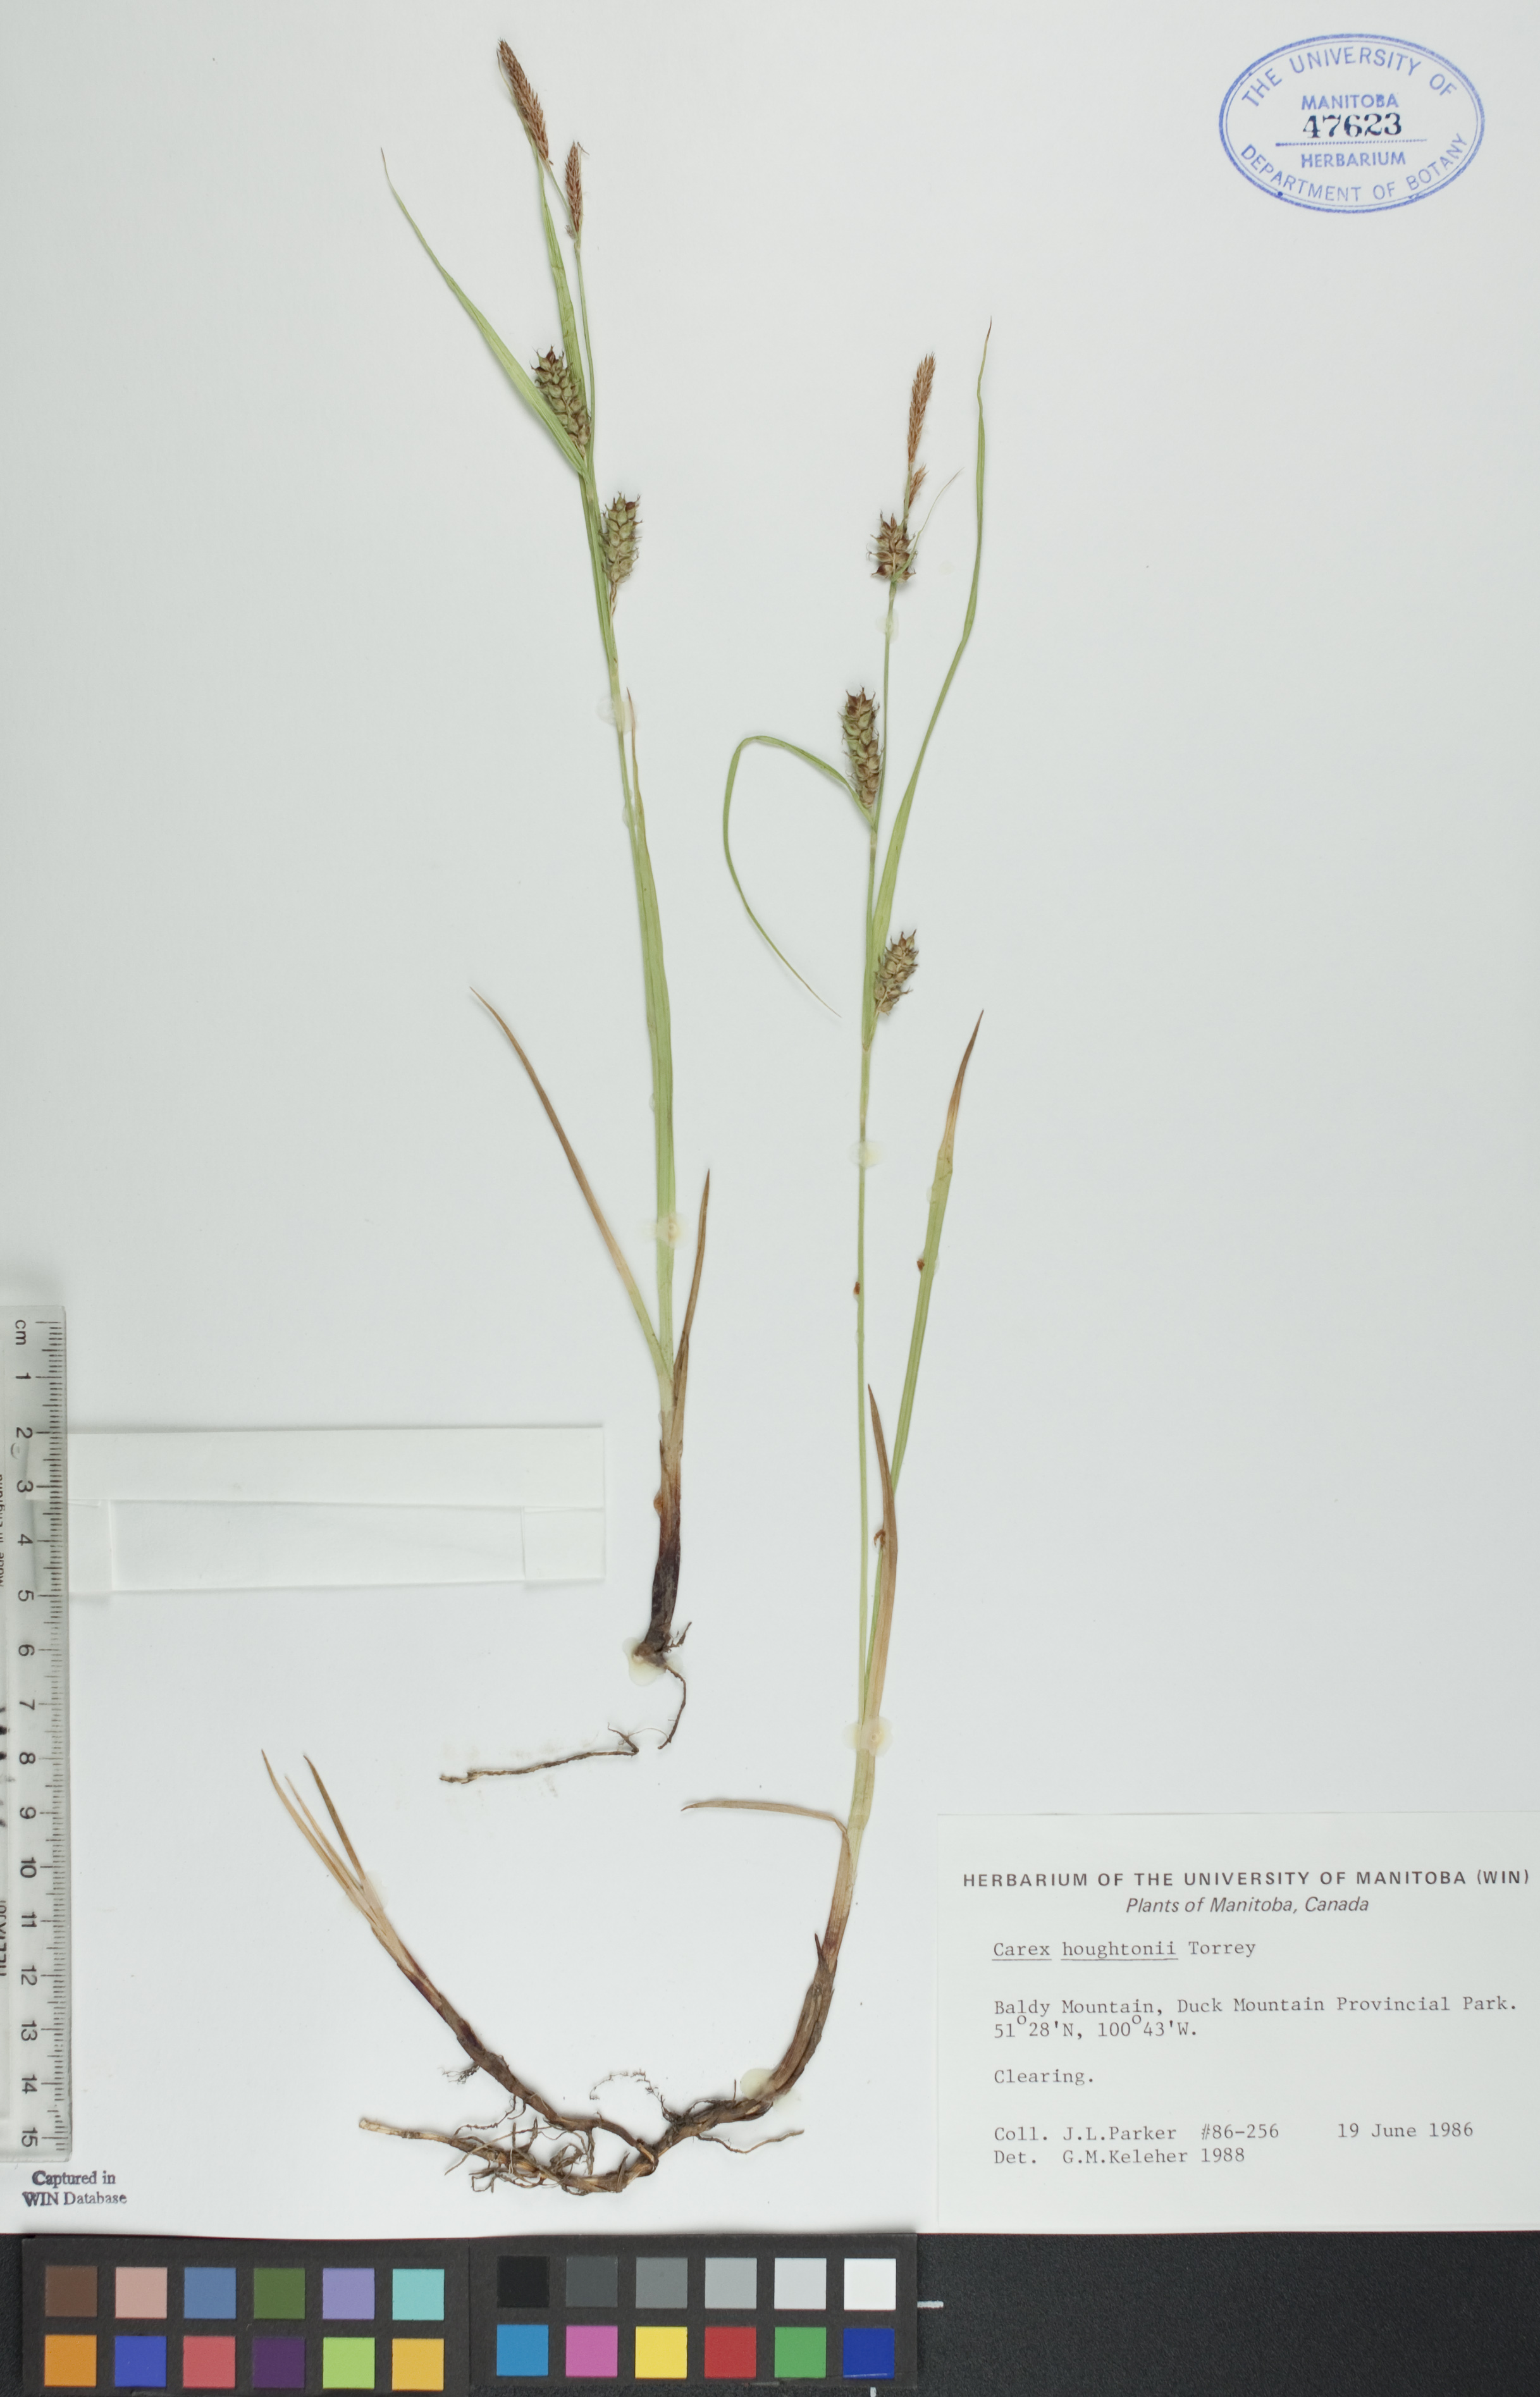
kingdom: Plantae
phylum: Tracheophyta
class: Liliopsida
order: Poales
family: Cyperaceae
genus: Carex
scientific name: Carex houghtoniana
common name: Houghton's sedge
